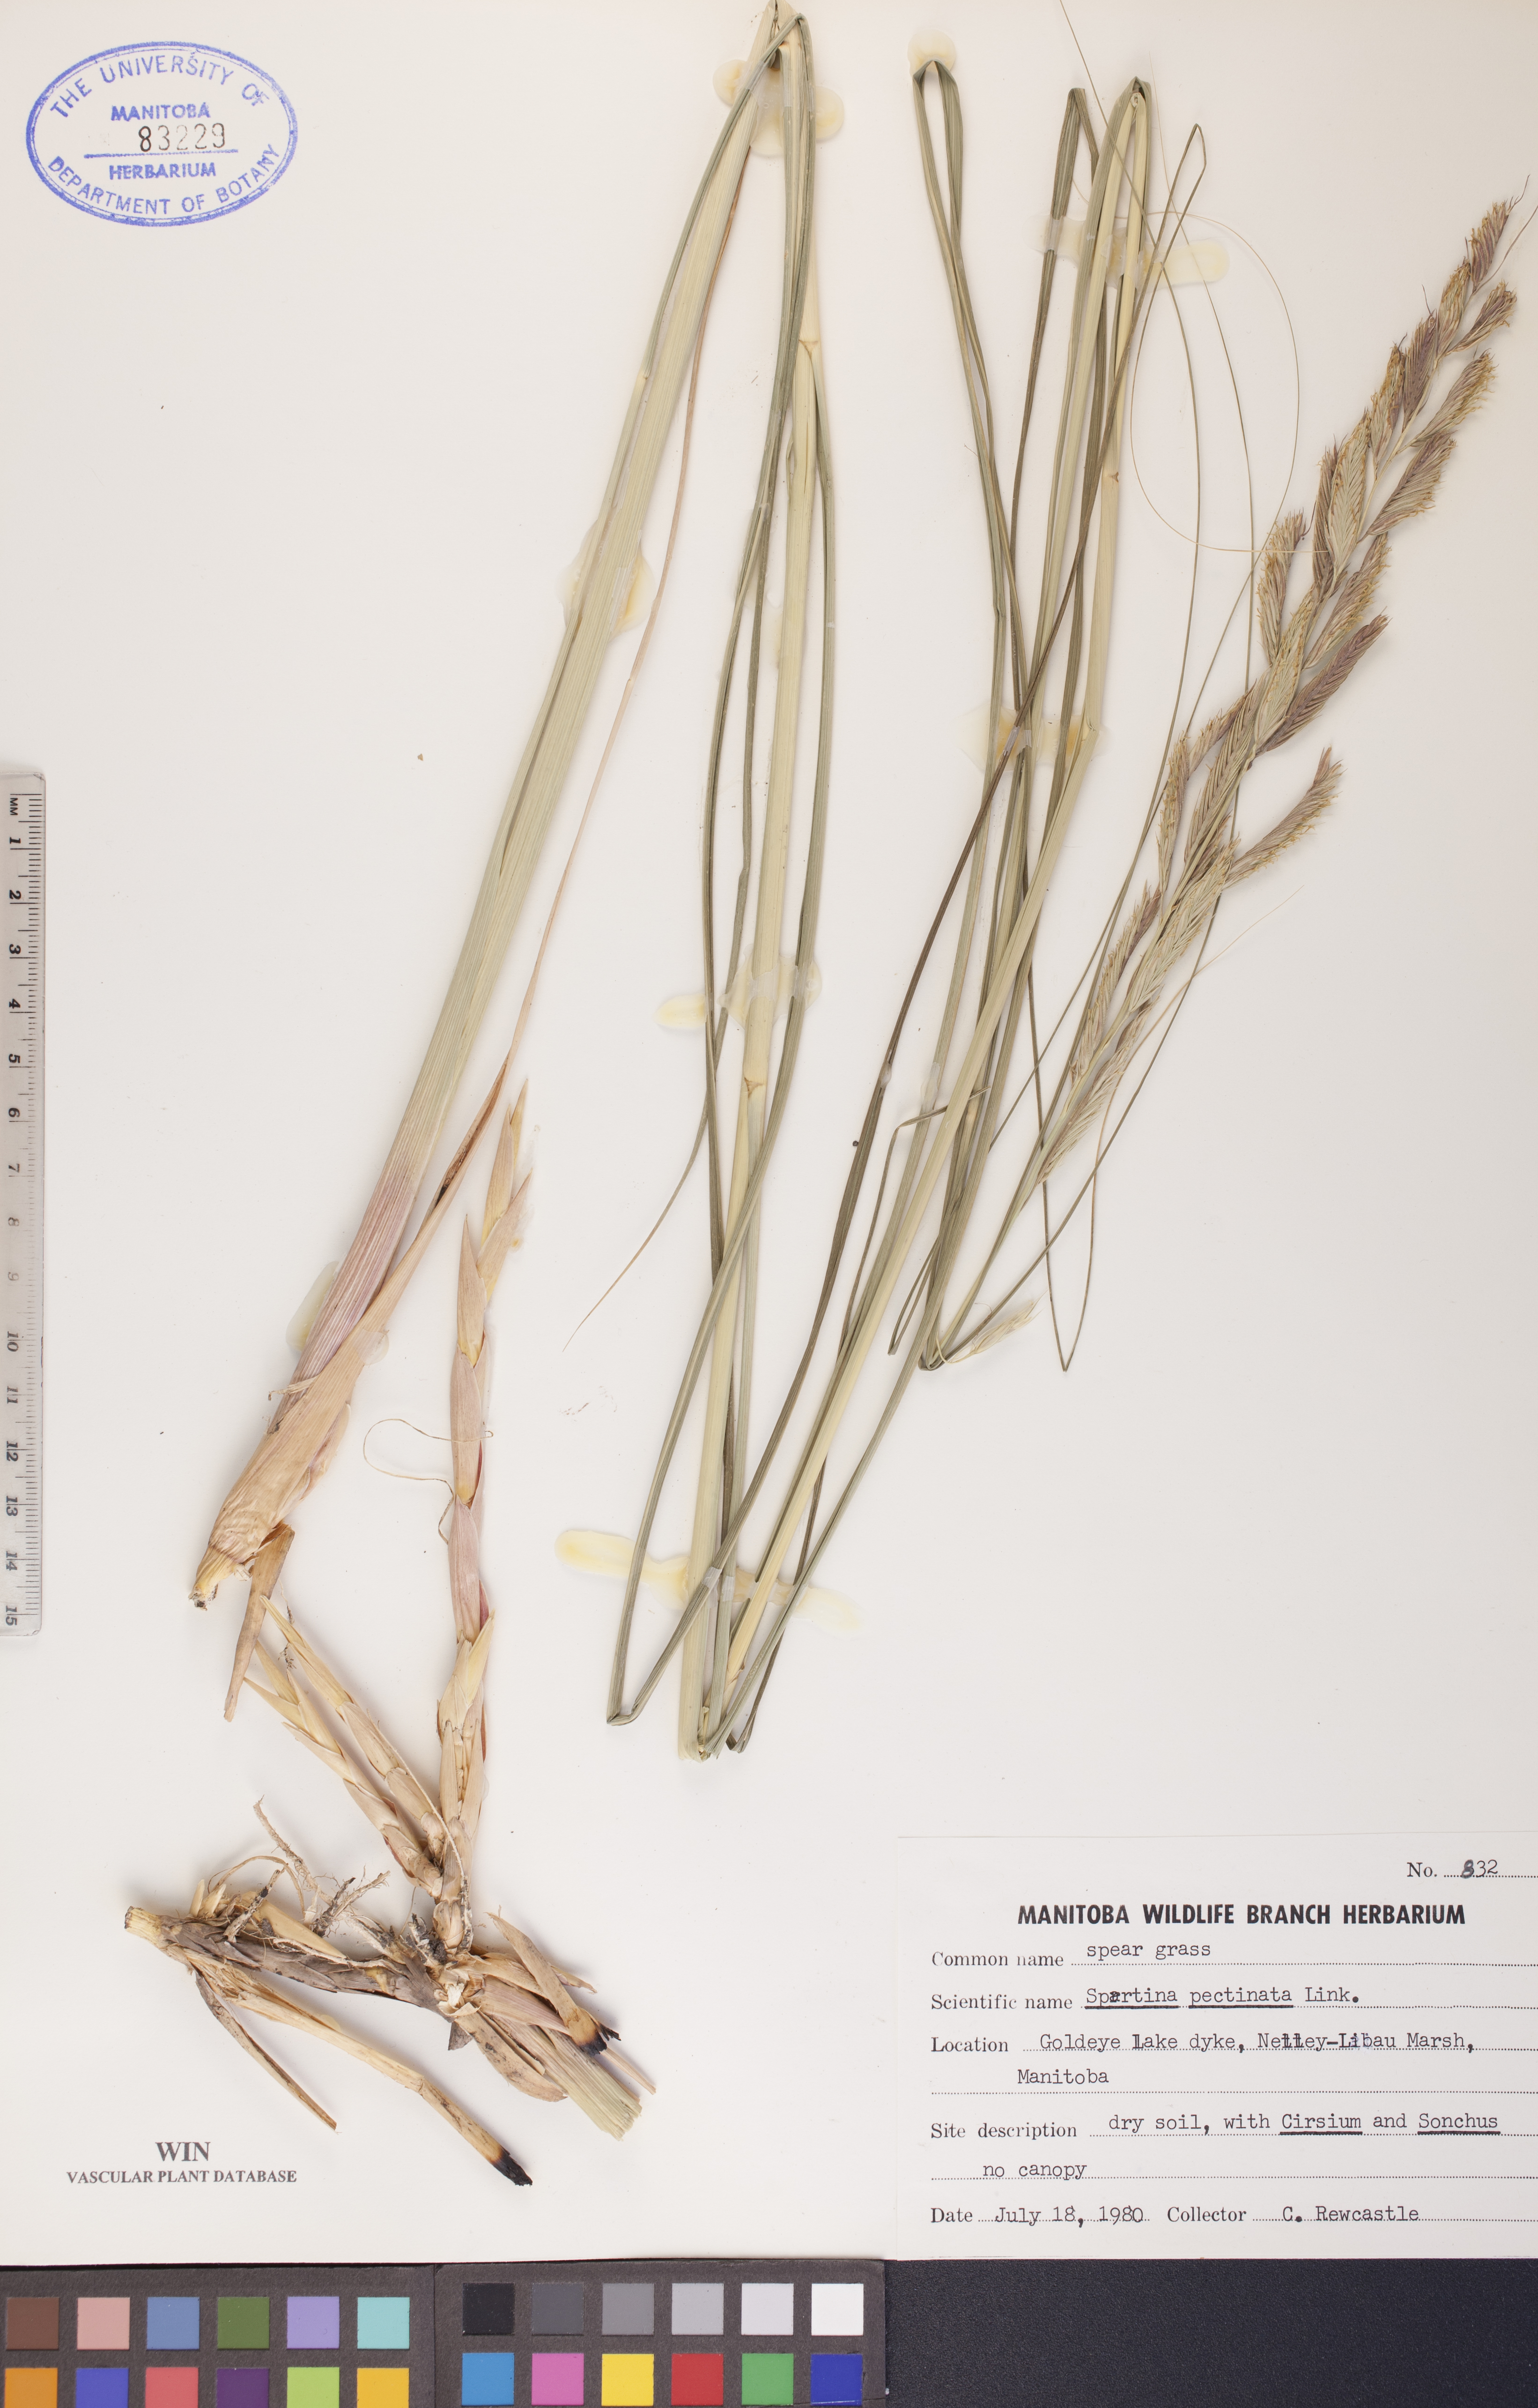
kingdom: Plantae
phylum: Tracheophyta
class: Liliopsida
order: Poales
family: Poaceae
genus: Sporobolus
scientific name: Sporobolus michauxianus
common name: Freshwater cordgrass
